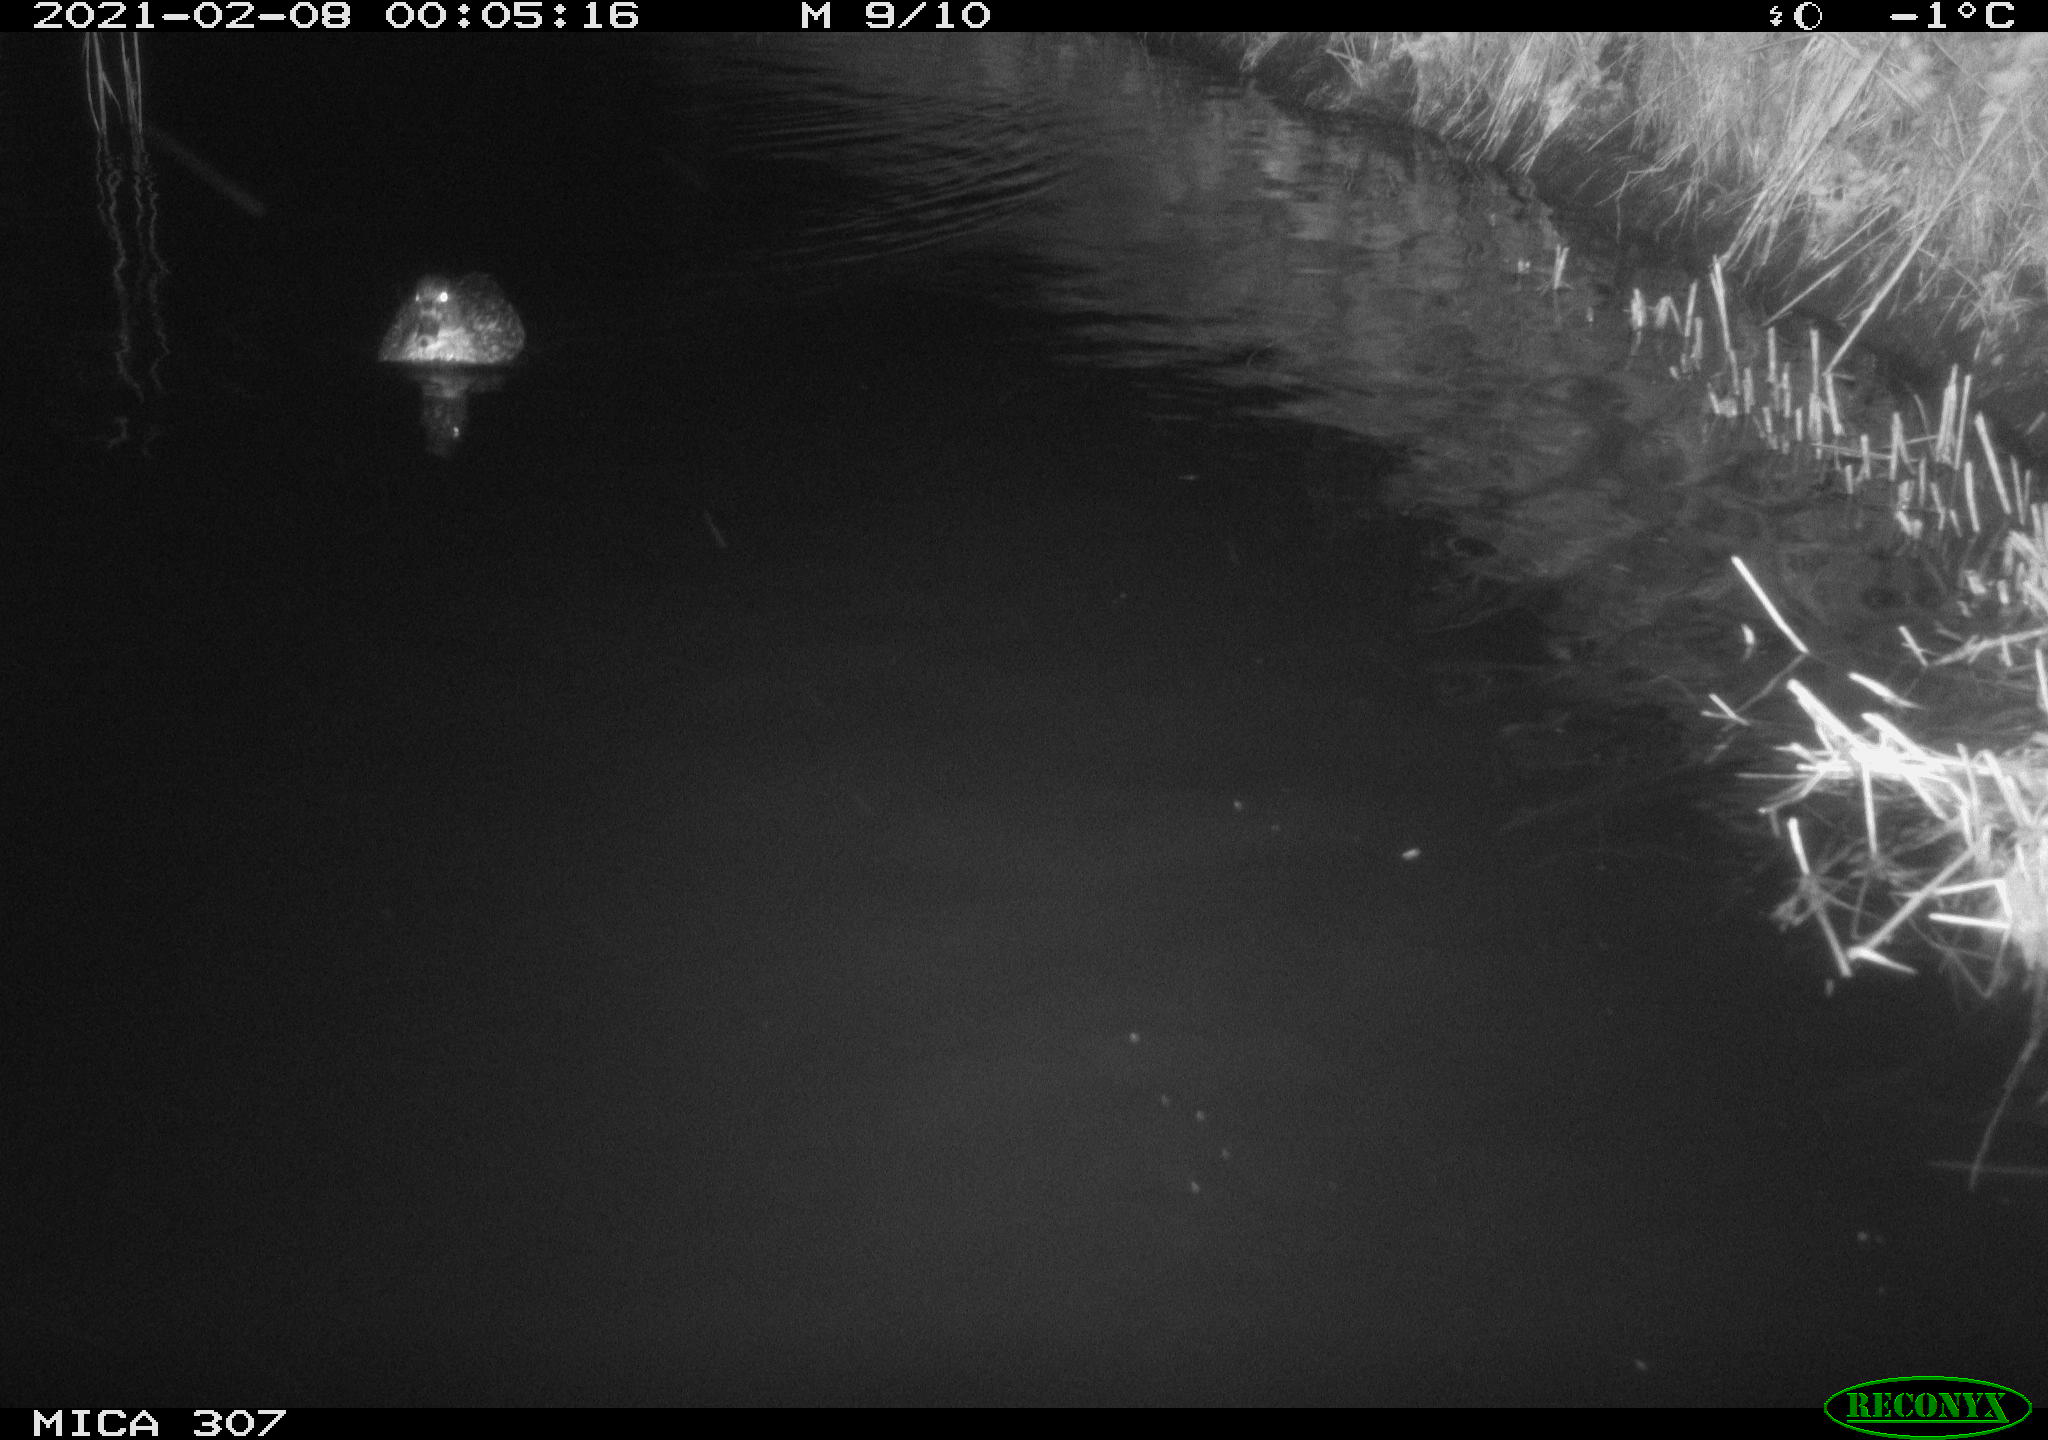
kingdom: Animalia
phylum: Chordata
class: Aves
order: Anseriformes
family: Anatidae
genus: Anas
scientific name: Anas platyrhynchos
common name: Mallard
